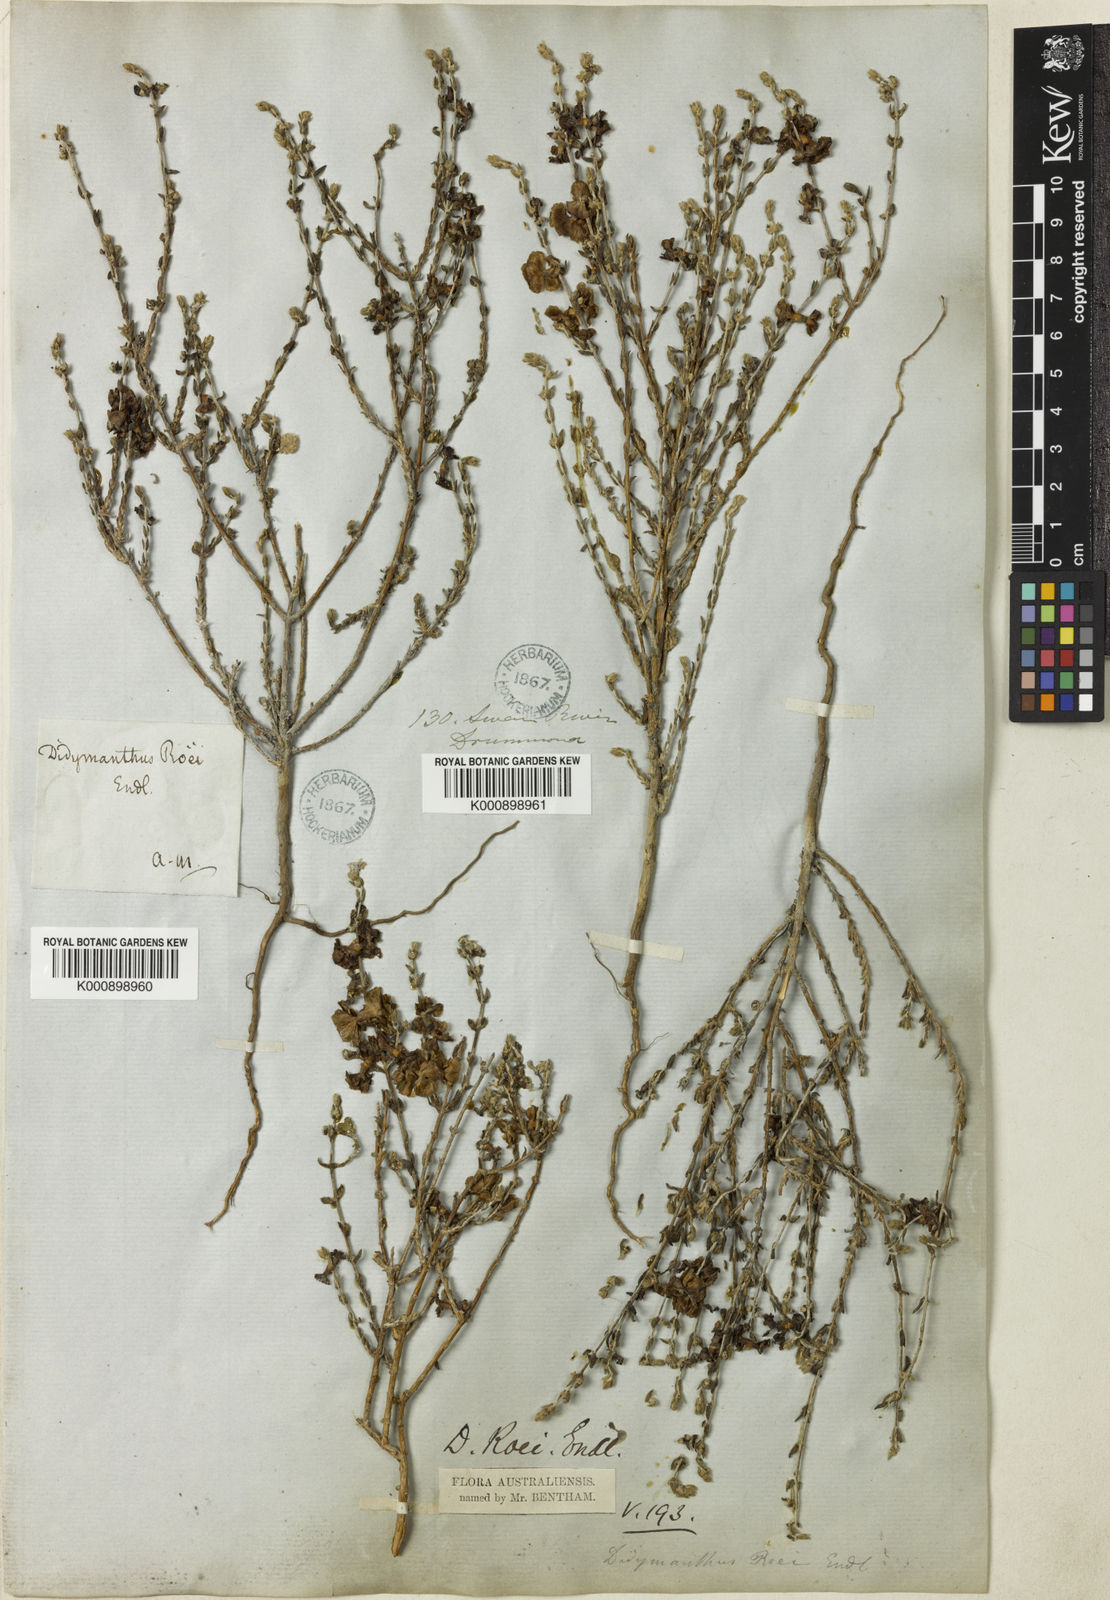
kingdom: Plantae
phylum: Tracheophyta
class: Magnoliopsida
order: Caryophyllales
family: Amaranthaceae
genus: Maireana
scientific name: Maireana
